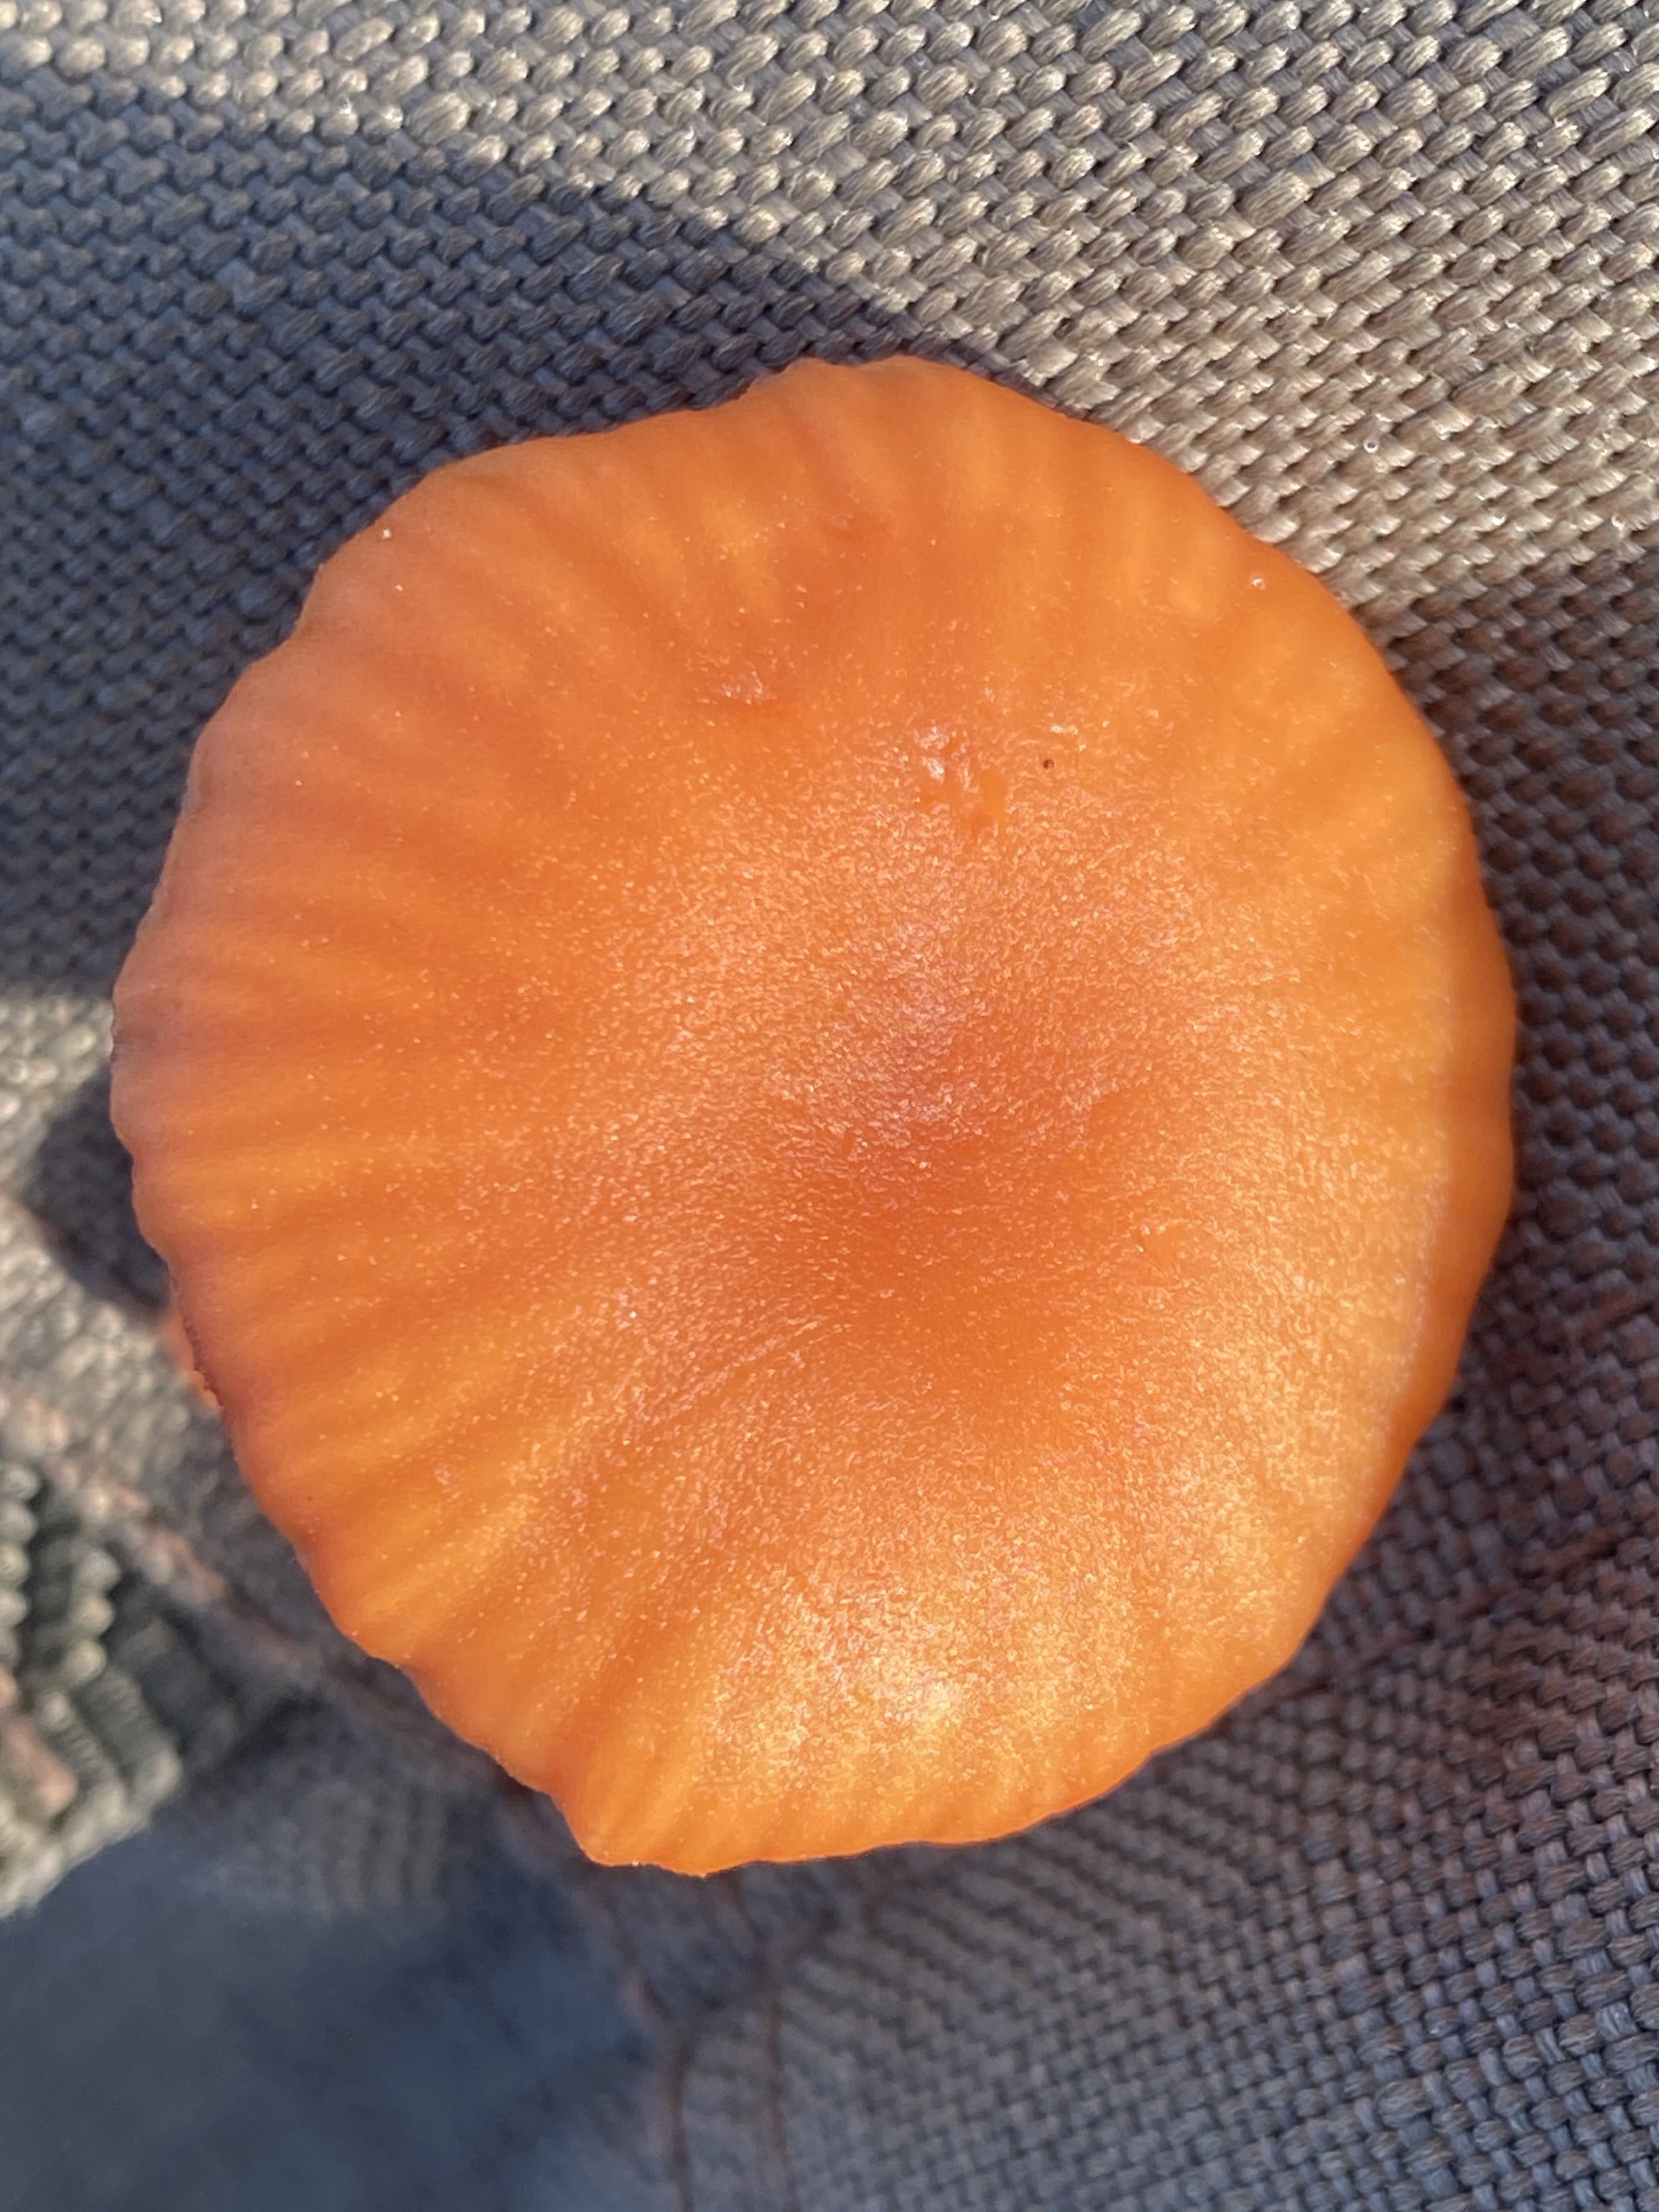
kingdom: Fungi
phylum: Basidiomycota
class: Agaricomycetes
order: Agaricales
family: Hydnangiaceae
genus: Laccaria
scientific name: Laccaria laccata
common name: rød ametysthat
